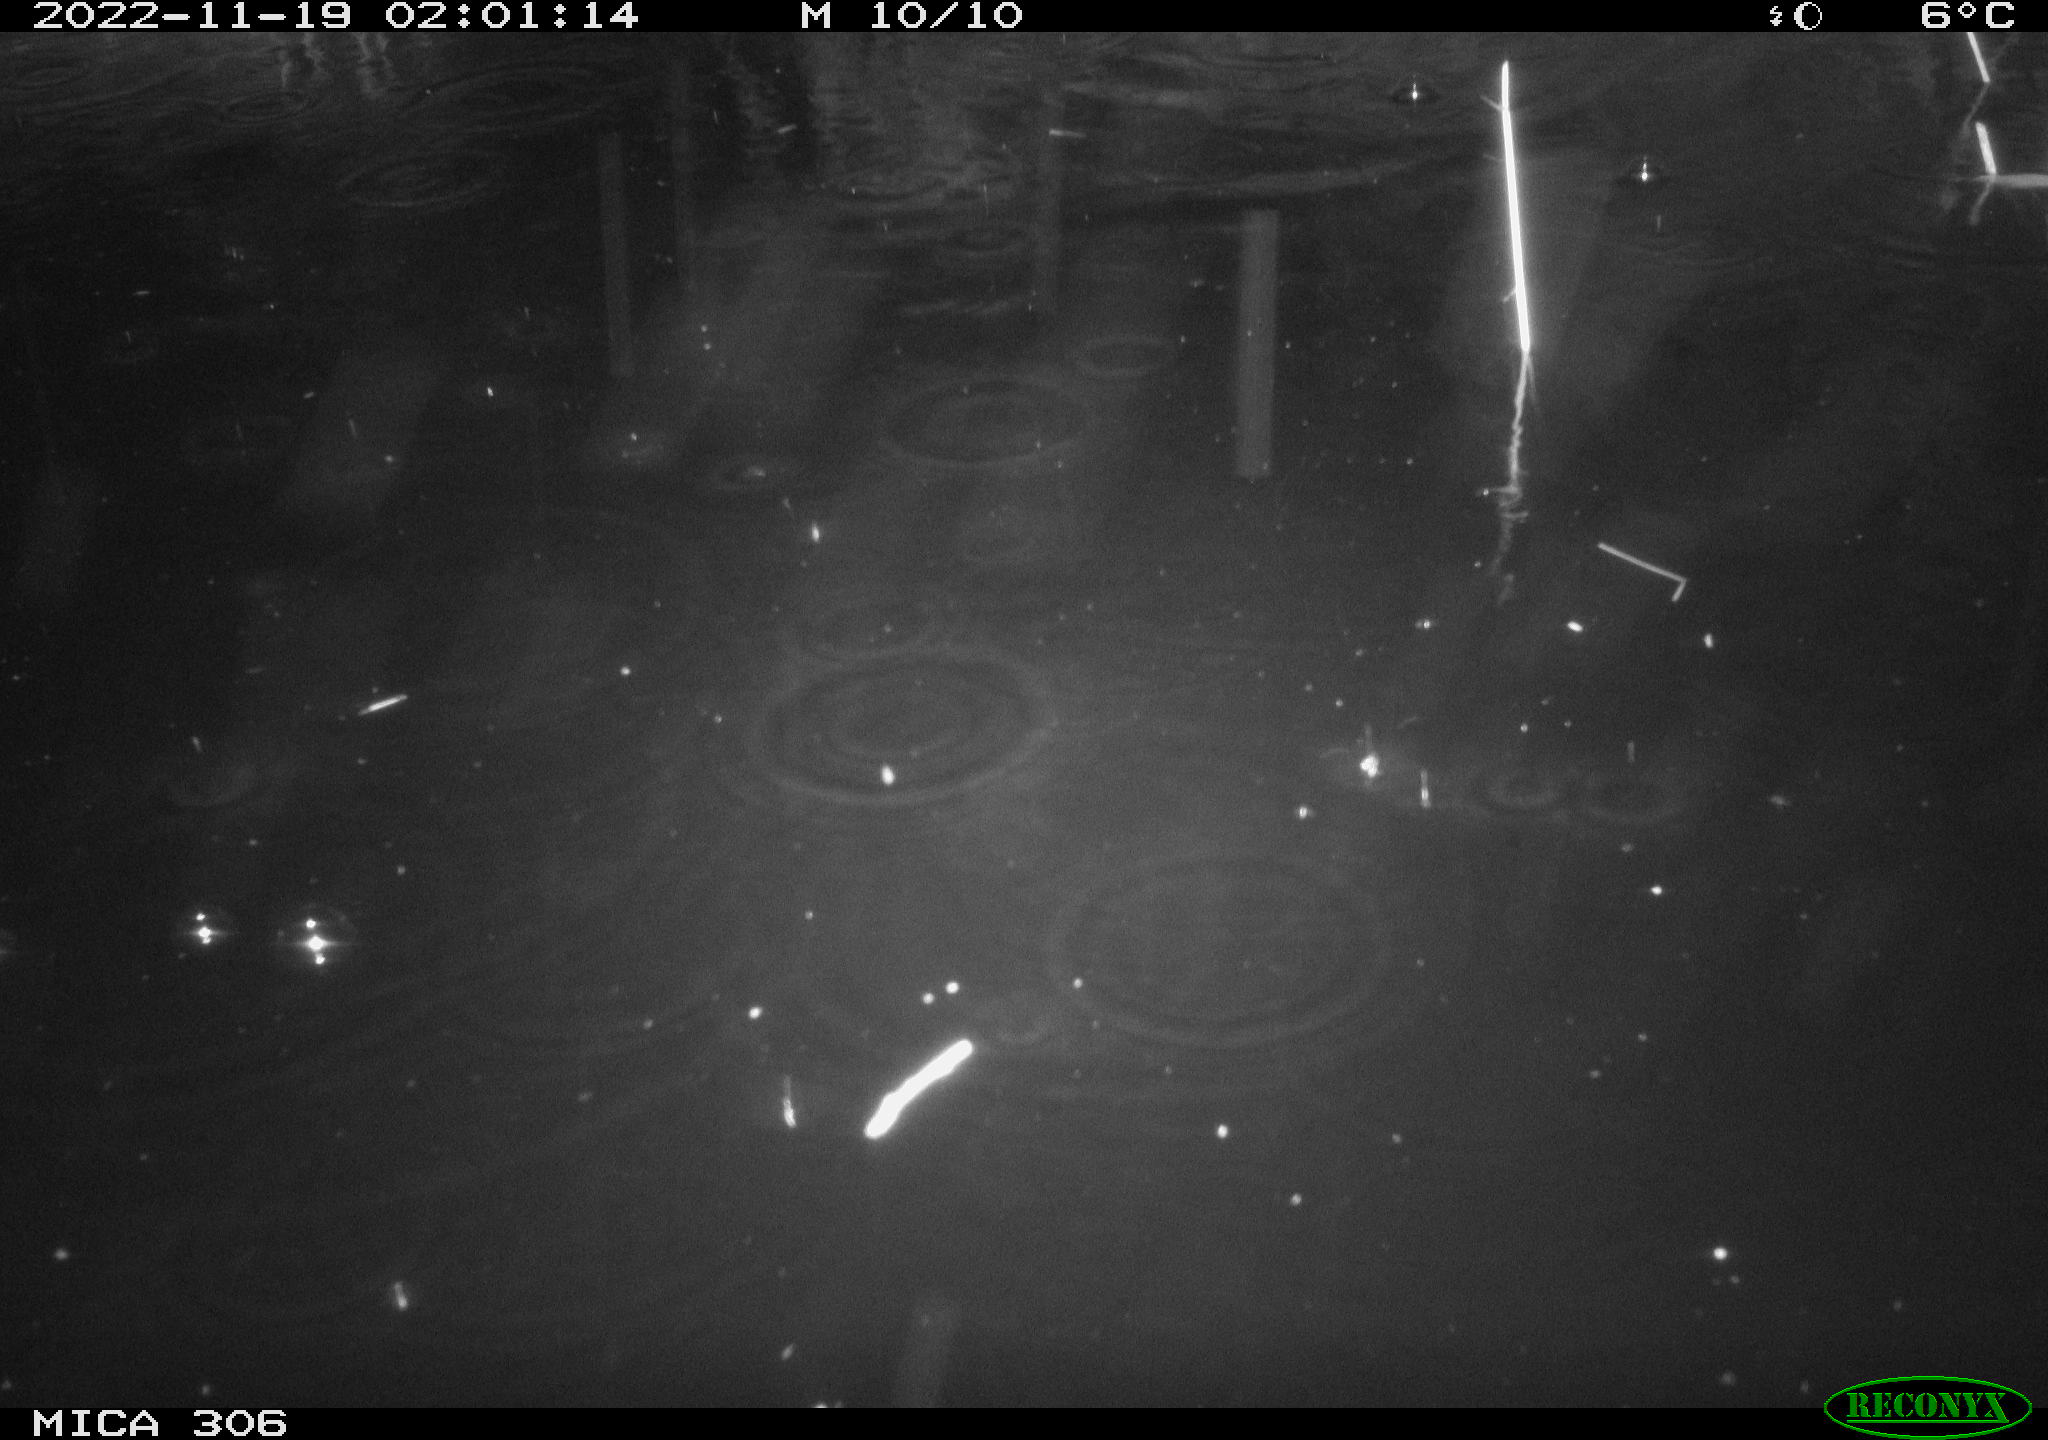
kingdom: Animalia
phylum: Chordata
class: Mammalia
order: Rodentia
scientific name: Rodentia
